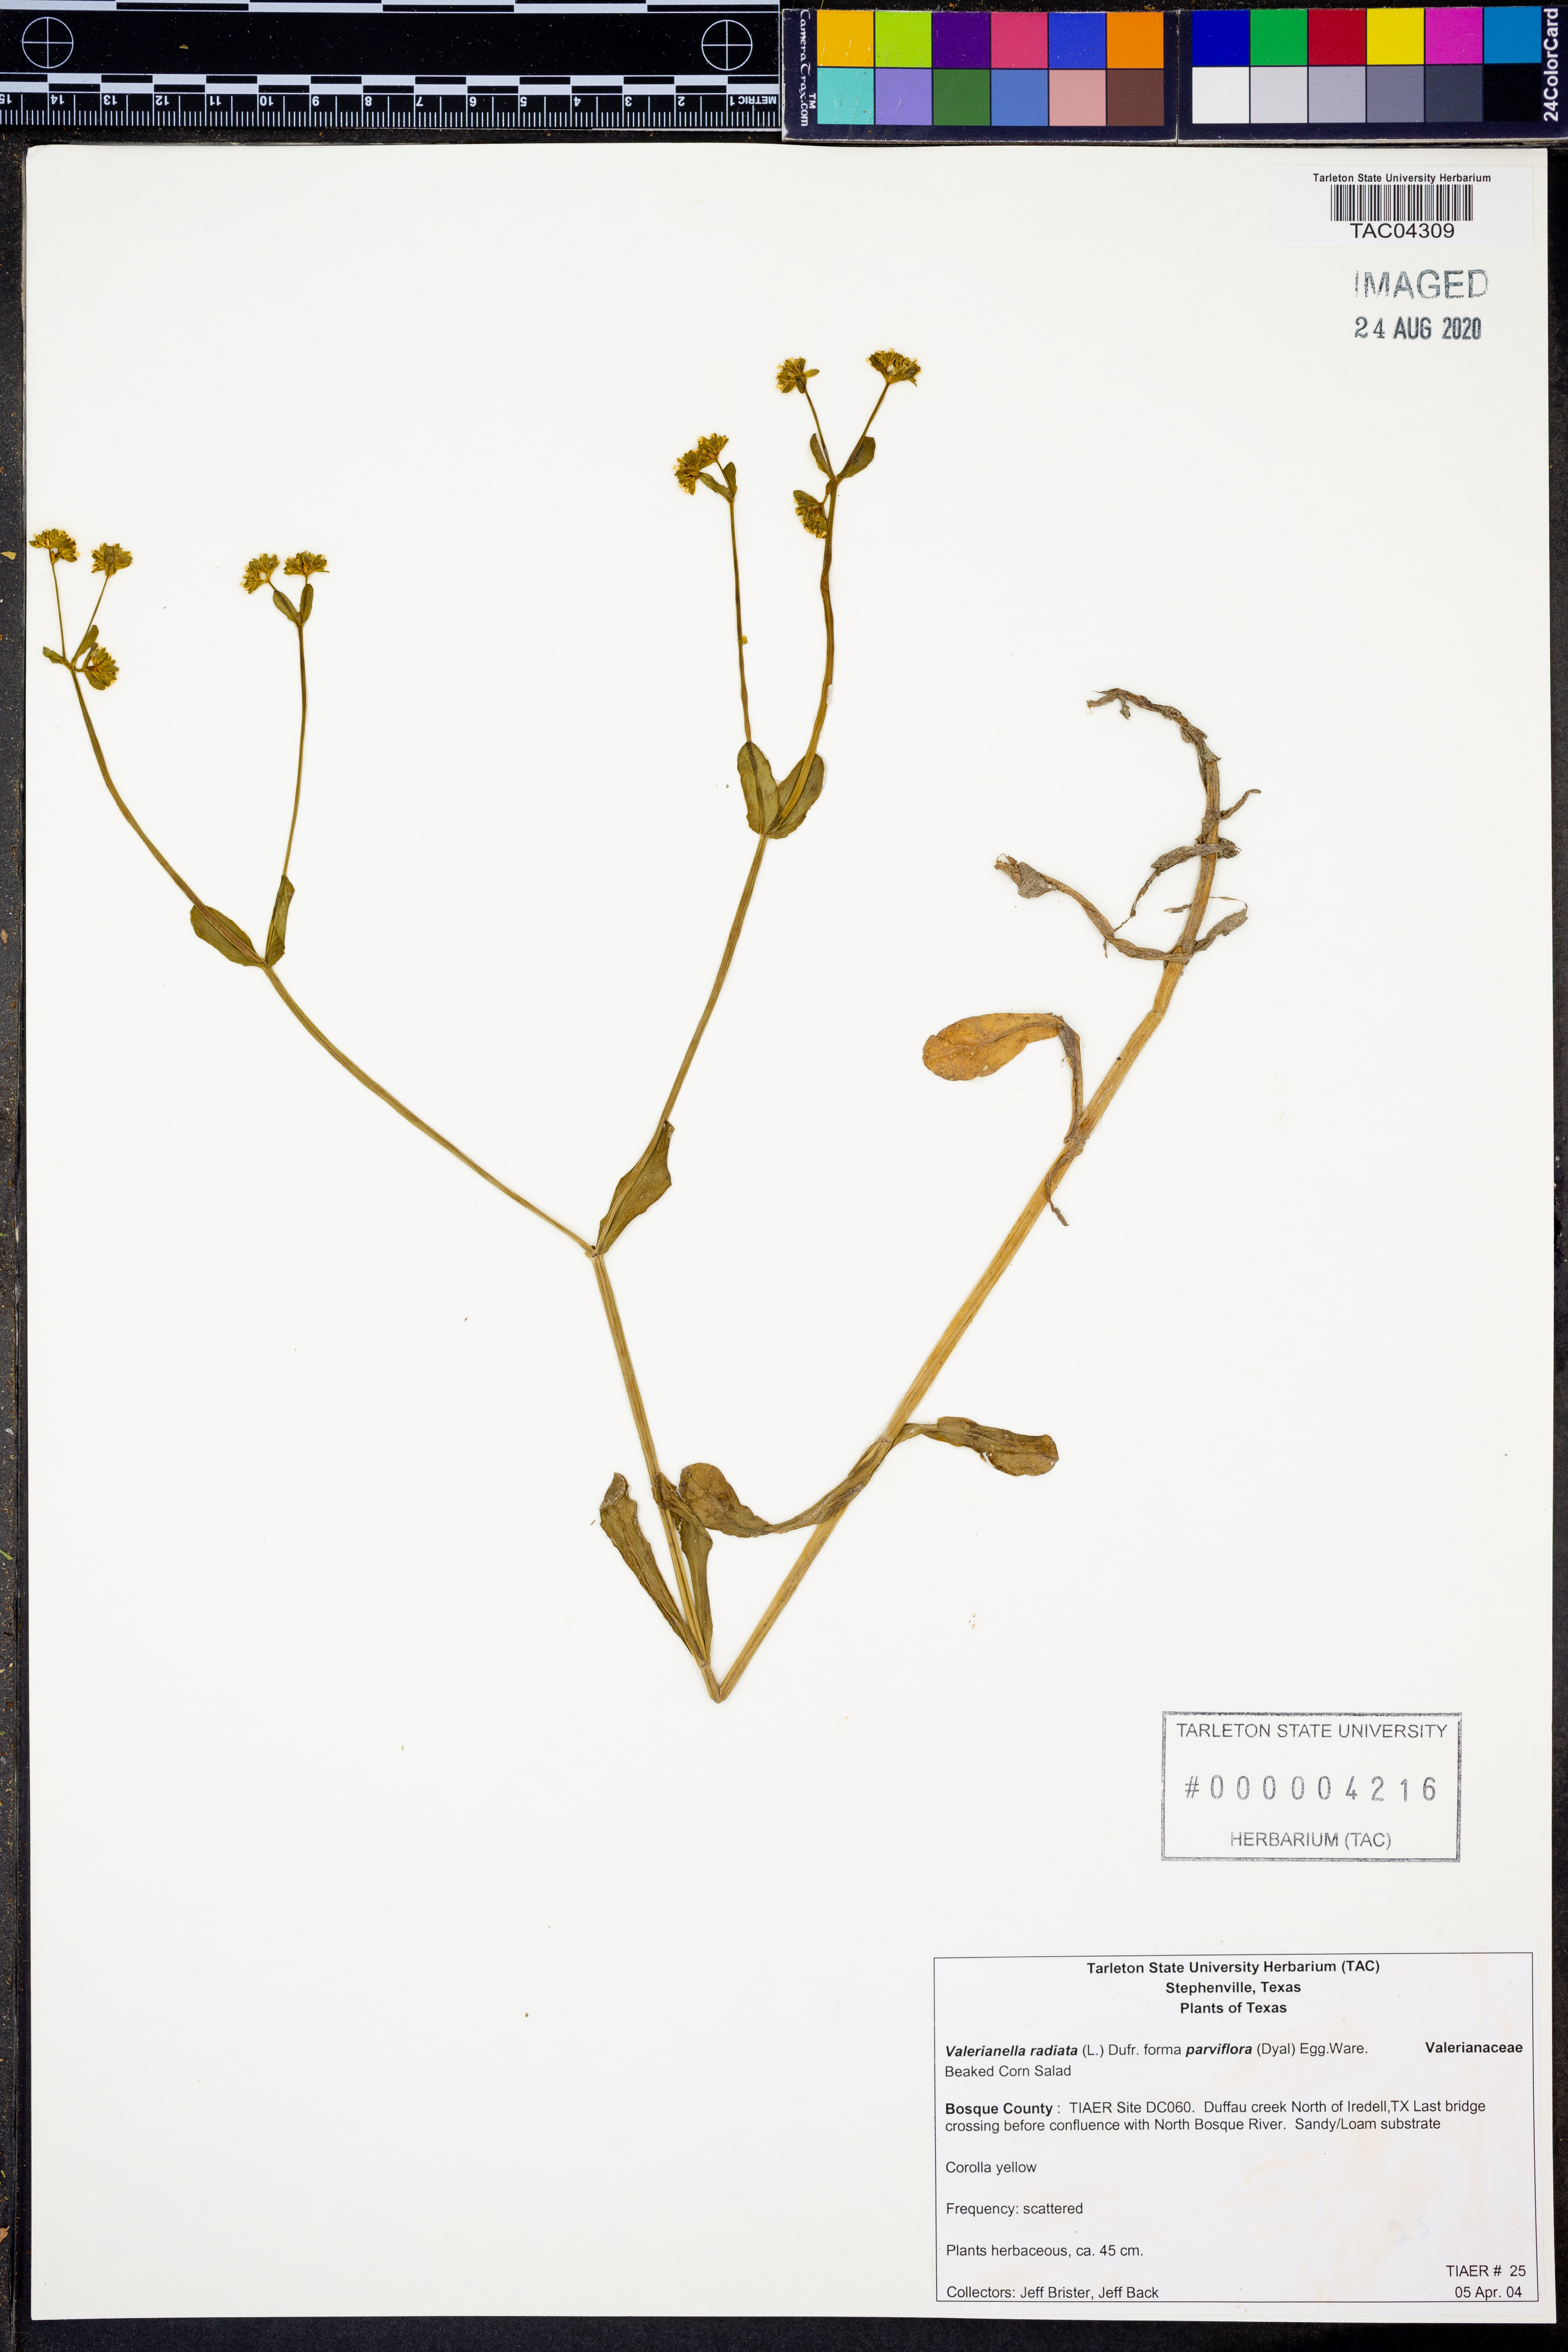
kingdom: Plantae
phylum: Tracheophyta
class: Magnoliopsida
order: Dipsacales
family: Caprifoliaceae
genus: Valerianella
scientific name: Valerianella radiata
